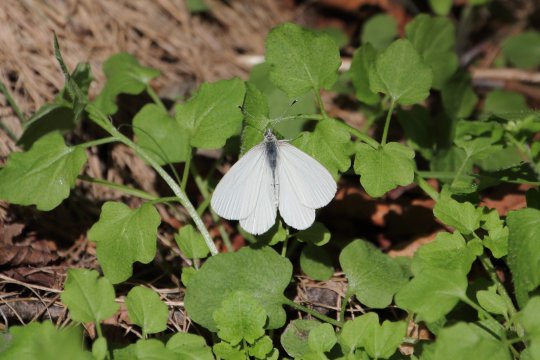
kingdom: Animalia
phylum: Arthropoda
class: Insecta
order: Lepidoptera
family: Pieridae
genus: Pieris
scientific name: Pieris marginalis
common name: Margined White
